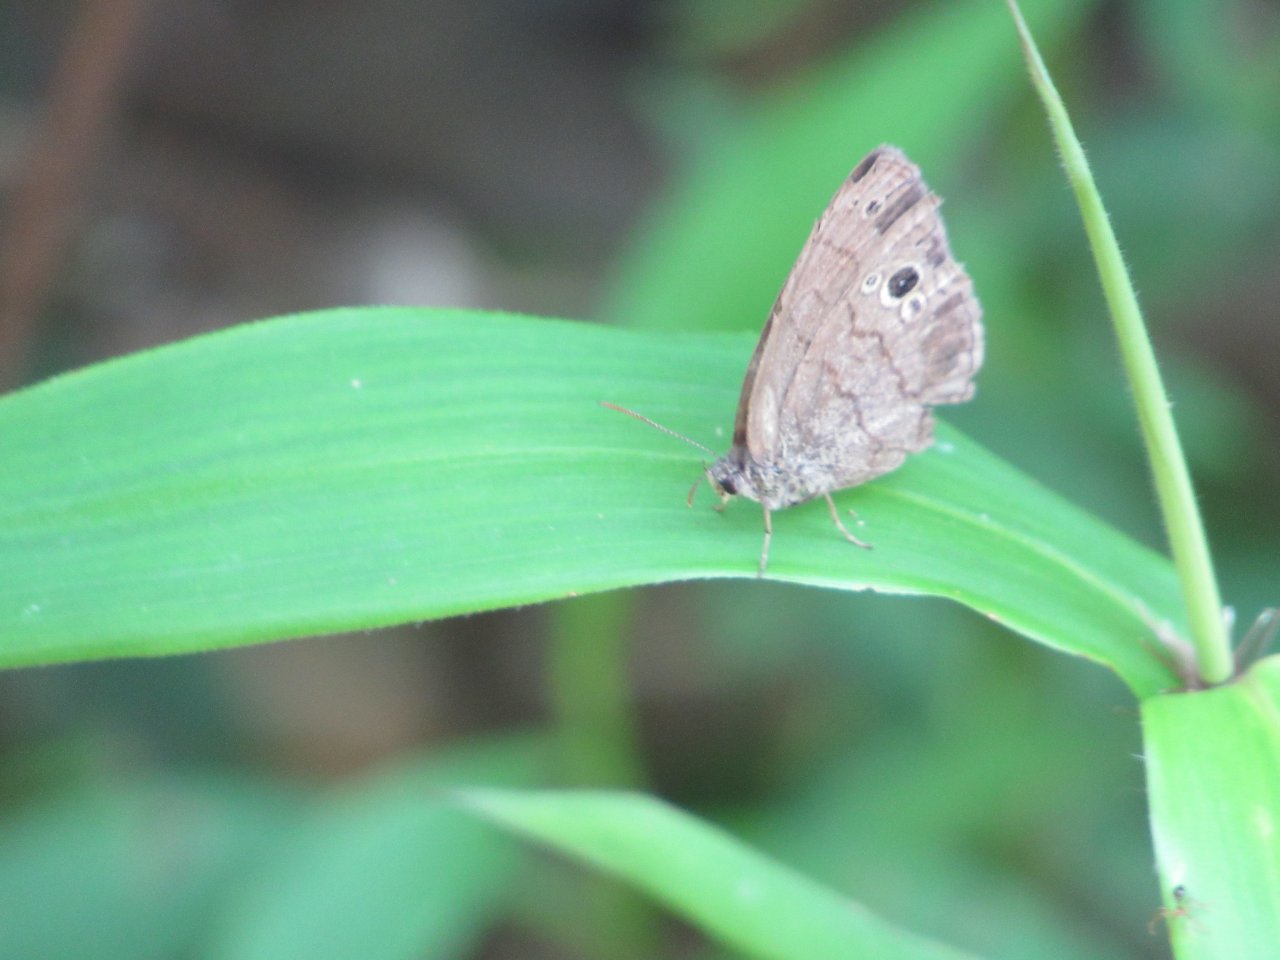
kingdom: Animalia
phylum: Arthropoda
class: Insecta
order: Lepidoptera
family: Nymphalidae
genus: Hermeuptychia
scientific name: Hermeuptychia hermes
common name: Carolina Satyr
